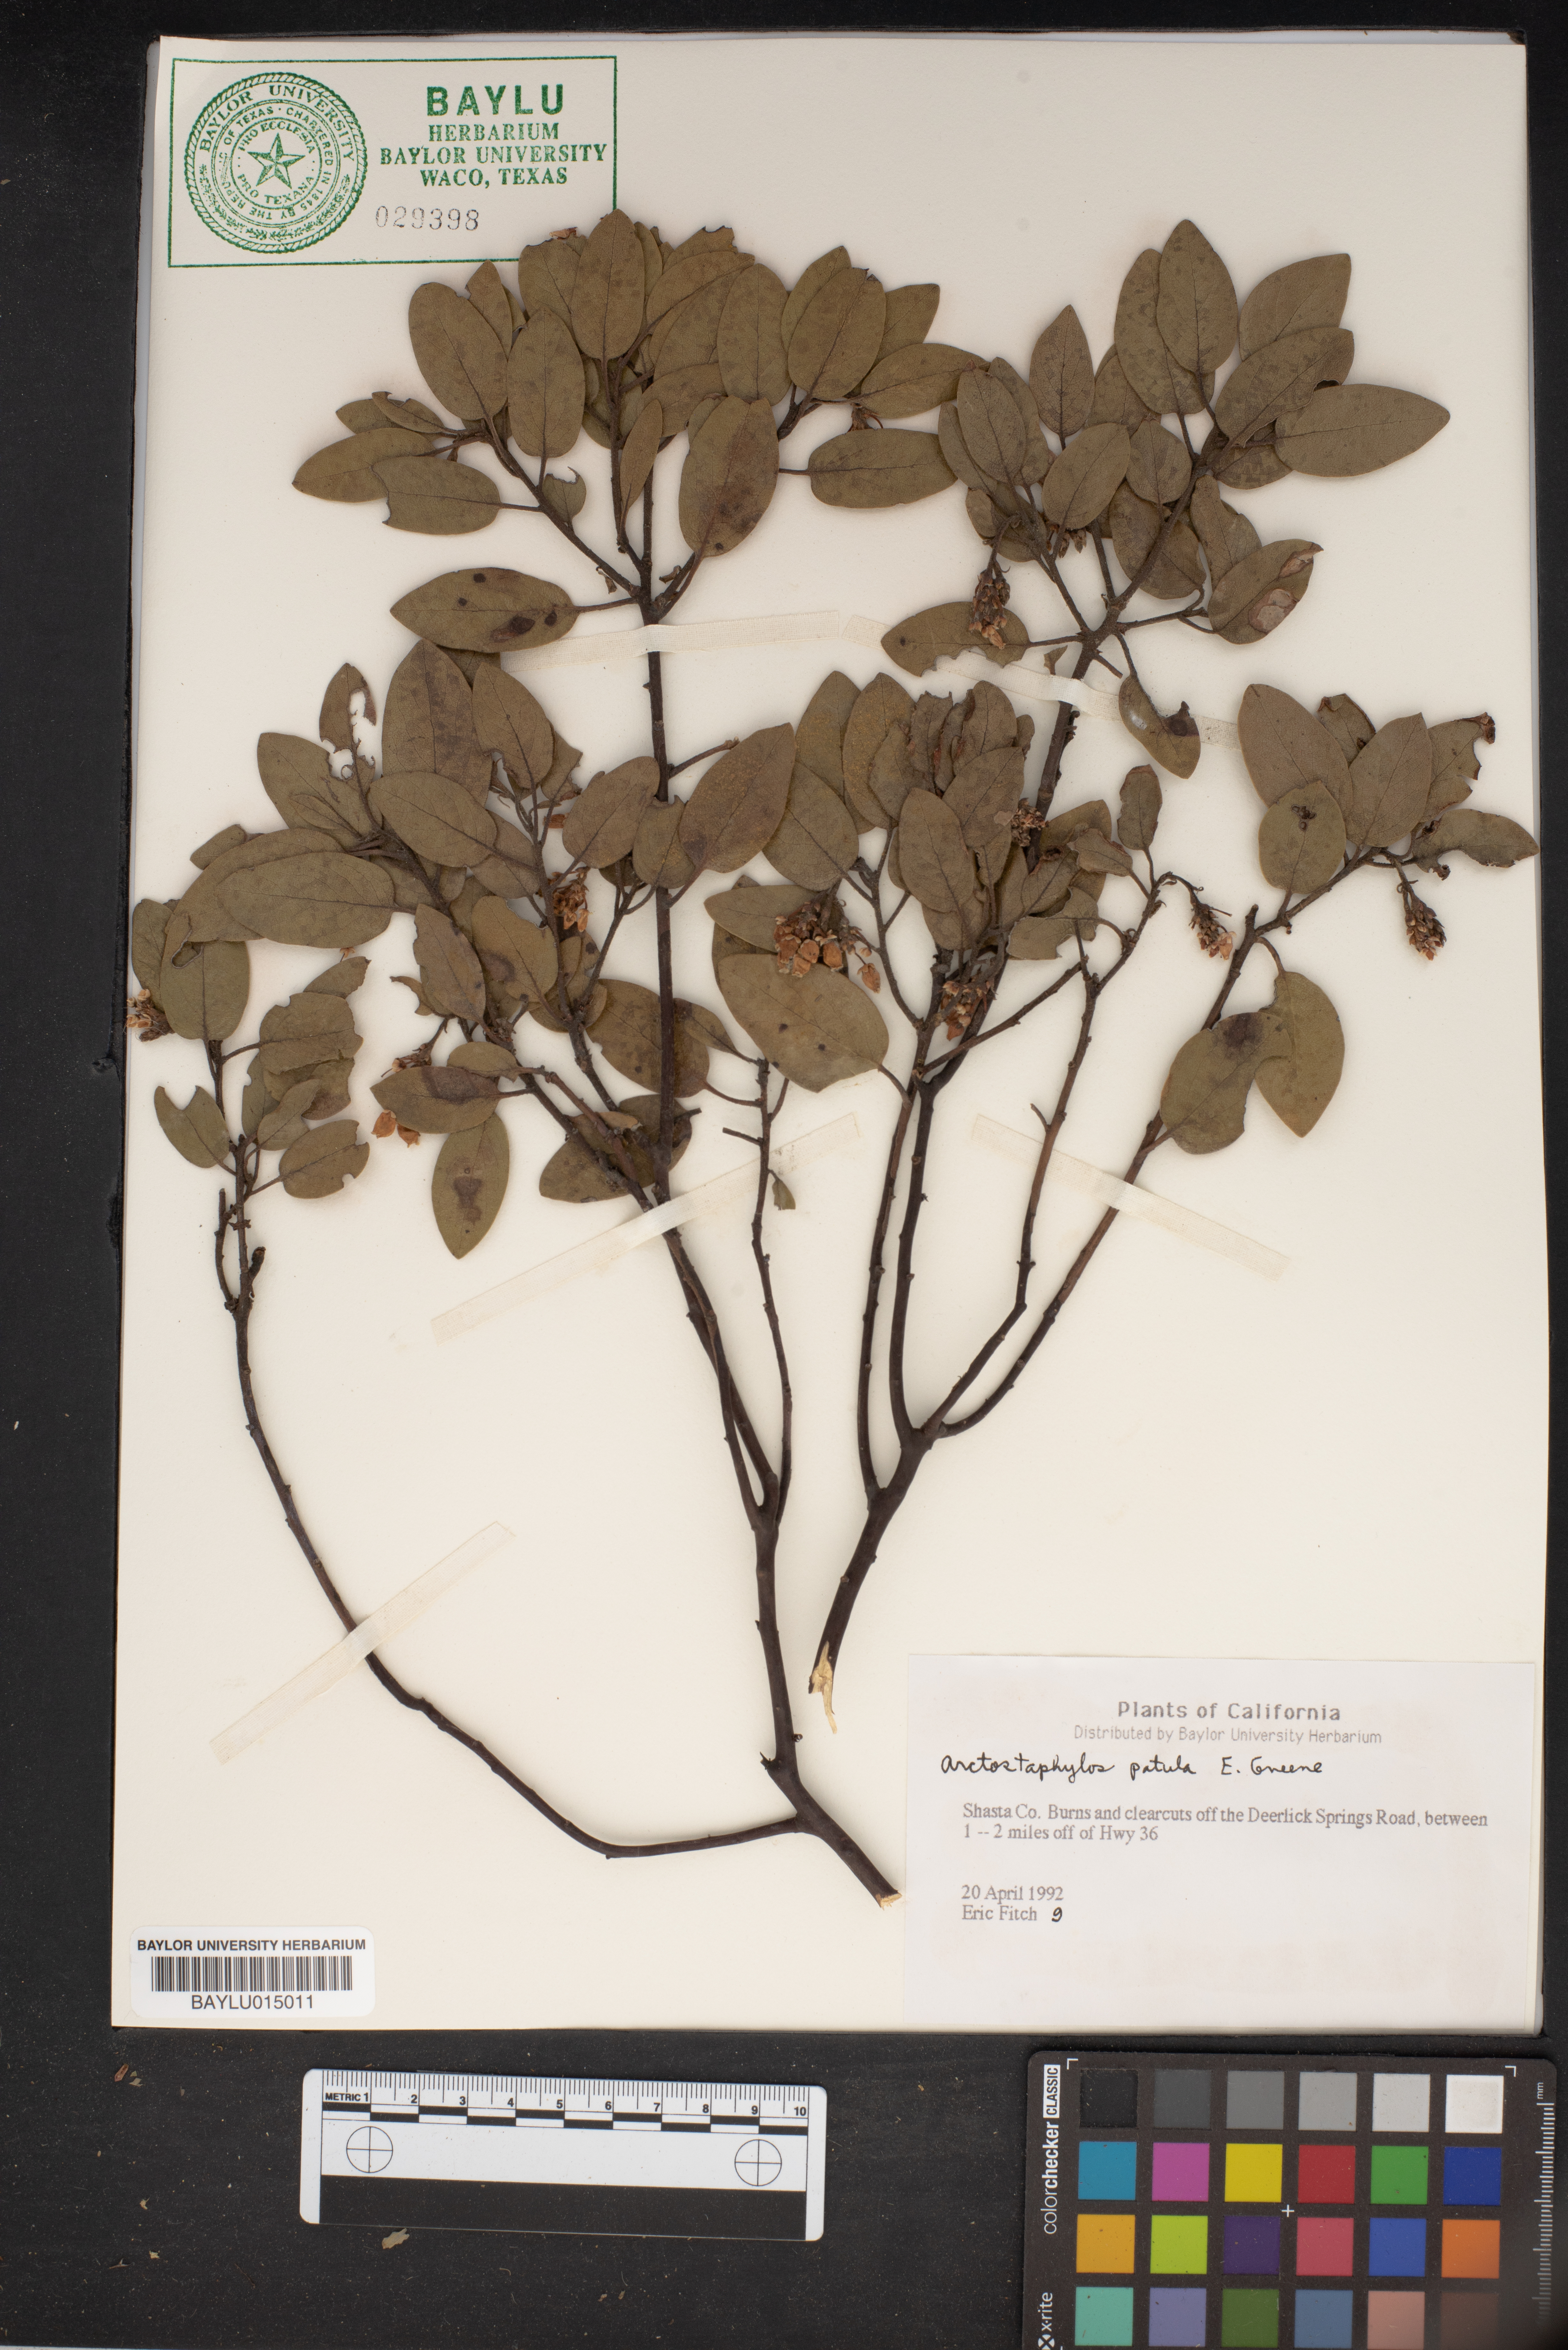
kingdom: Plantae
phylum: Tracheophyta
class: Magnoliopsida
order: Ericales
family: Ericaceae
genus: Arctostaphylos
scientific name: Arctostaphylos patula
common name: Green-leaf manzanita
